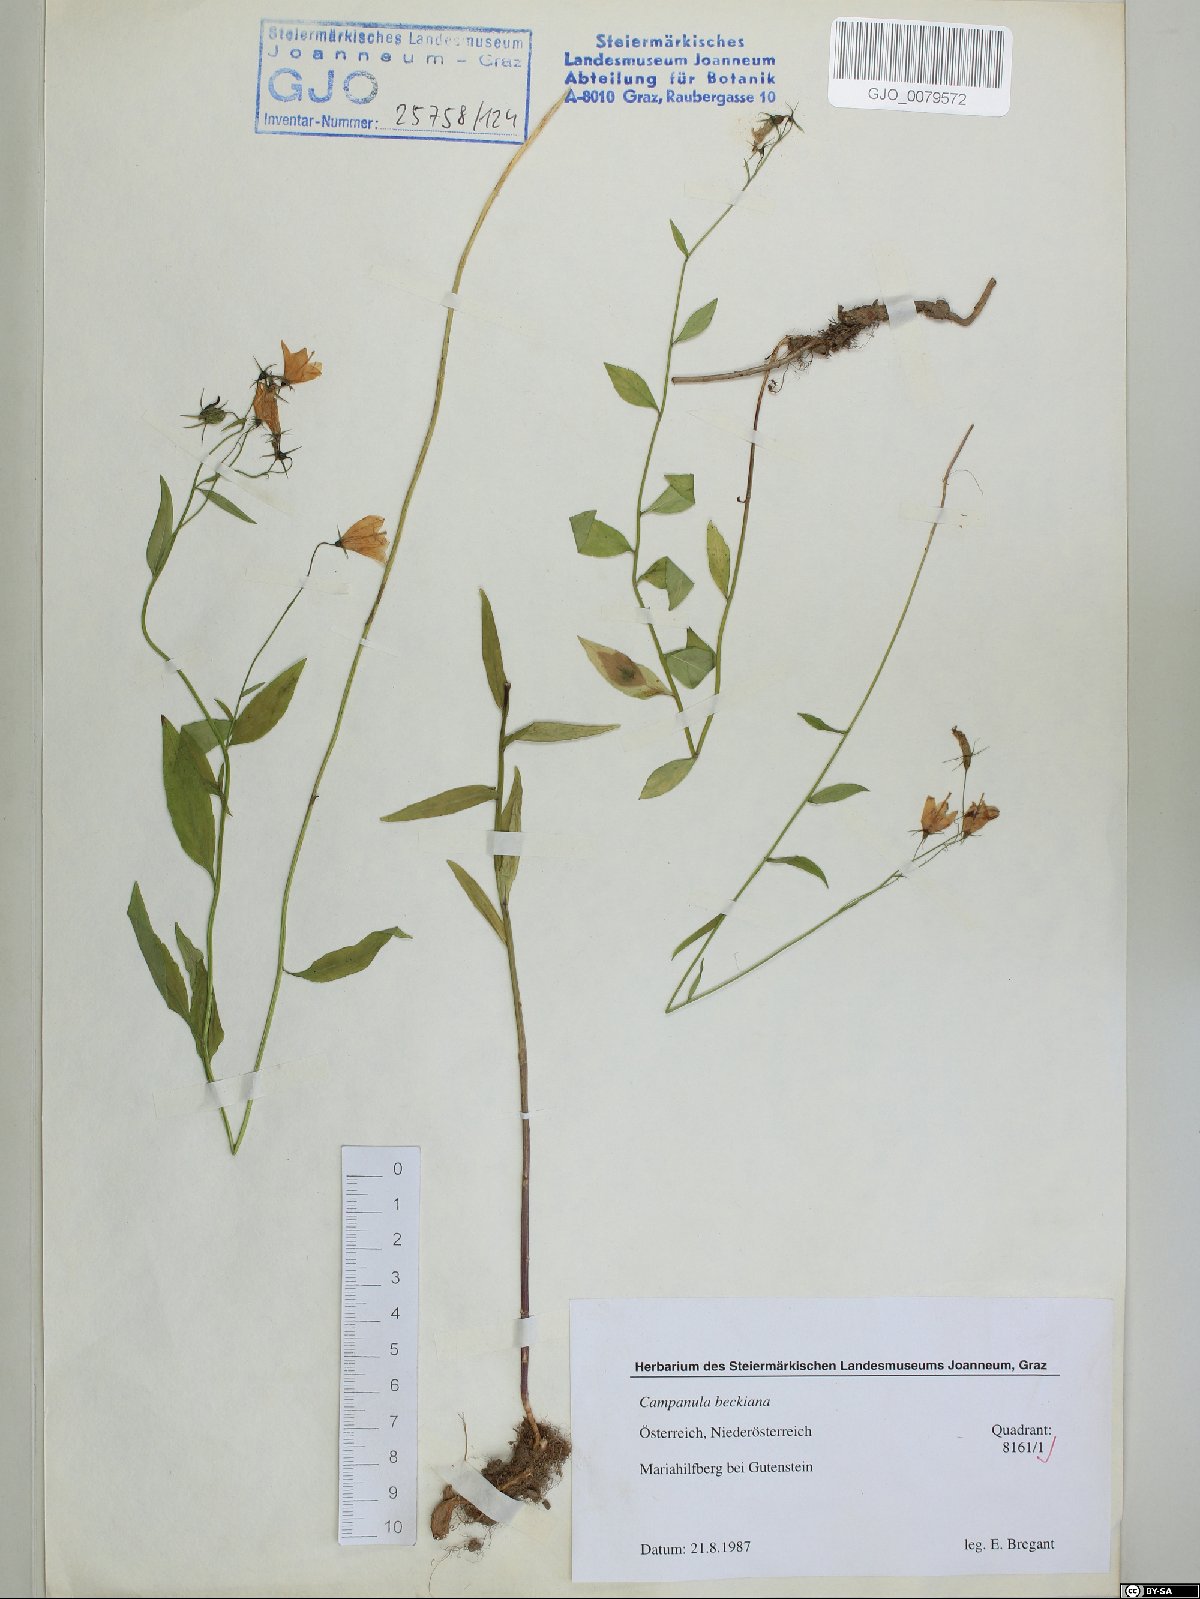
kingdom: Plantae
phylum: Tracheophyta
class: Magnoliopsida
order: Asterales
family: Campanulaceae
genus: Campanula
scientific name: Campanula baumgartenii
